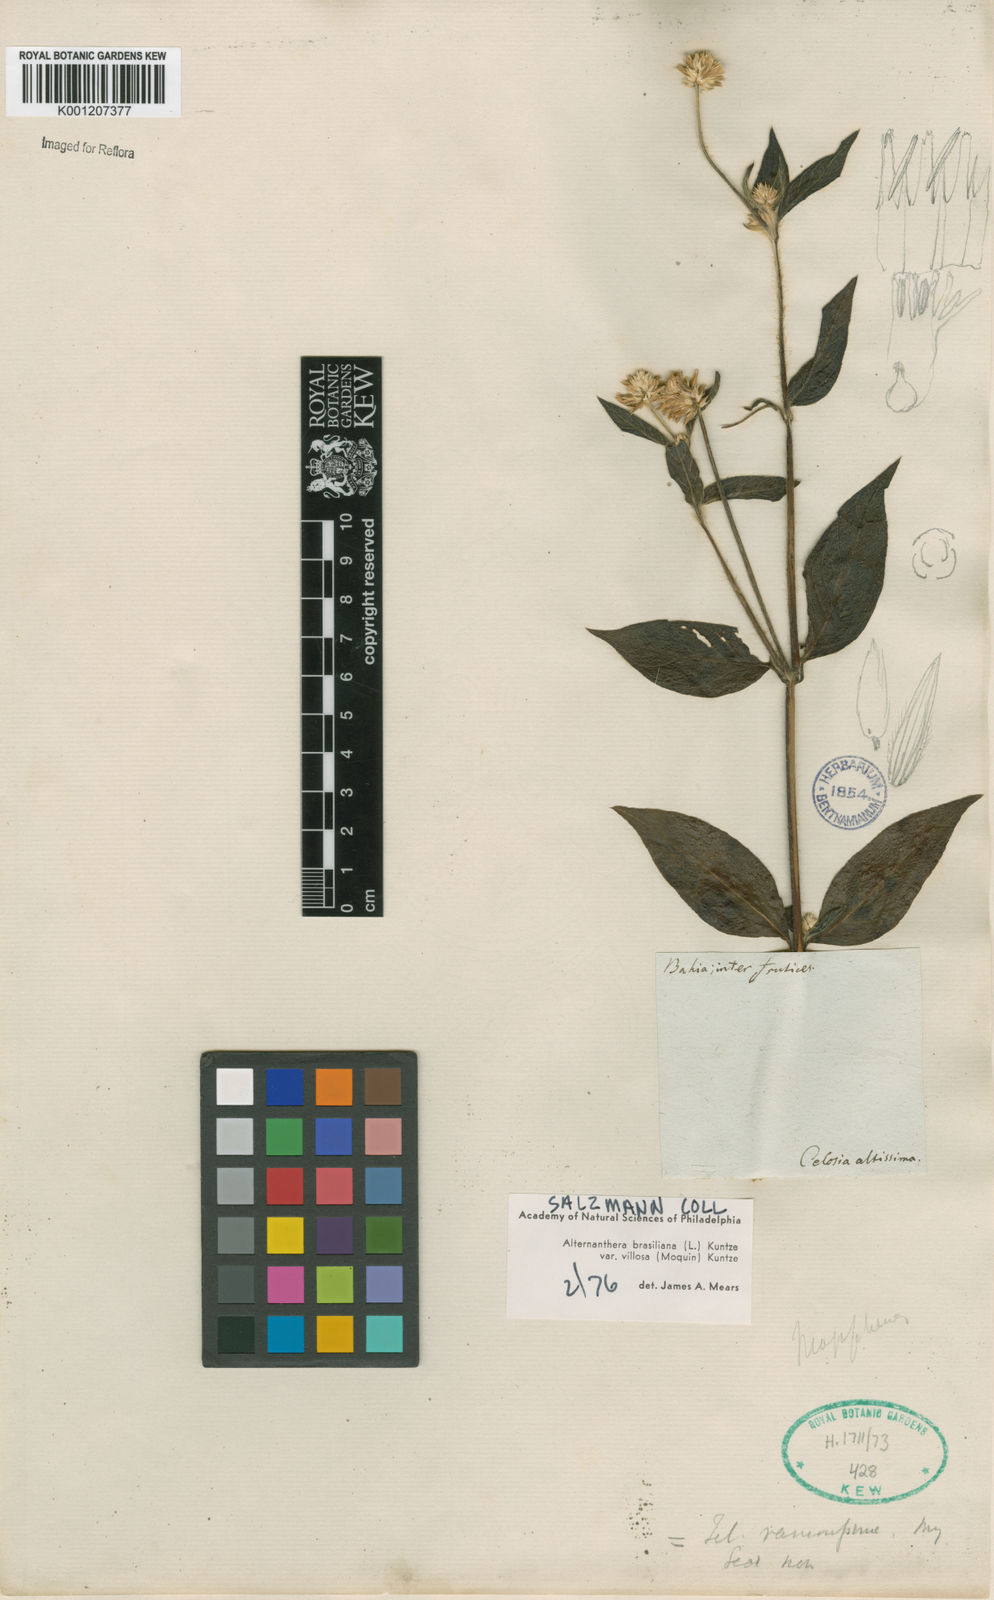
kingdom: Plantae
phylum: Tracheophyta
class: Magnoliopsida
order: Caryophyllales
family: Amaranthaceae
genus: Alternanthera
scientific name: Alternanthera ramosissima
